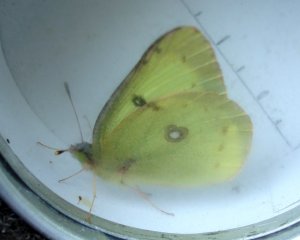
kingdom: Animalia
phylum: Arthropoda
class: Insecta
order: Lepidoptera
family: Pieridae
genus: Colias
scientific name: Colias philodice
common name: Clouded Sulphur
